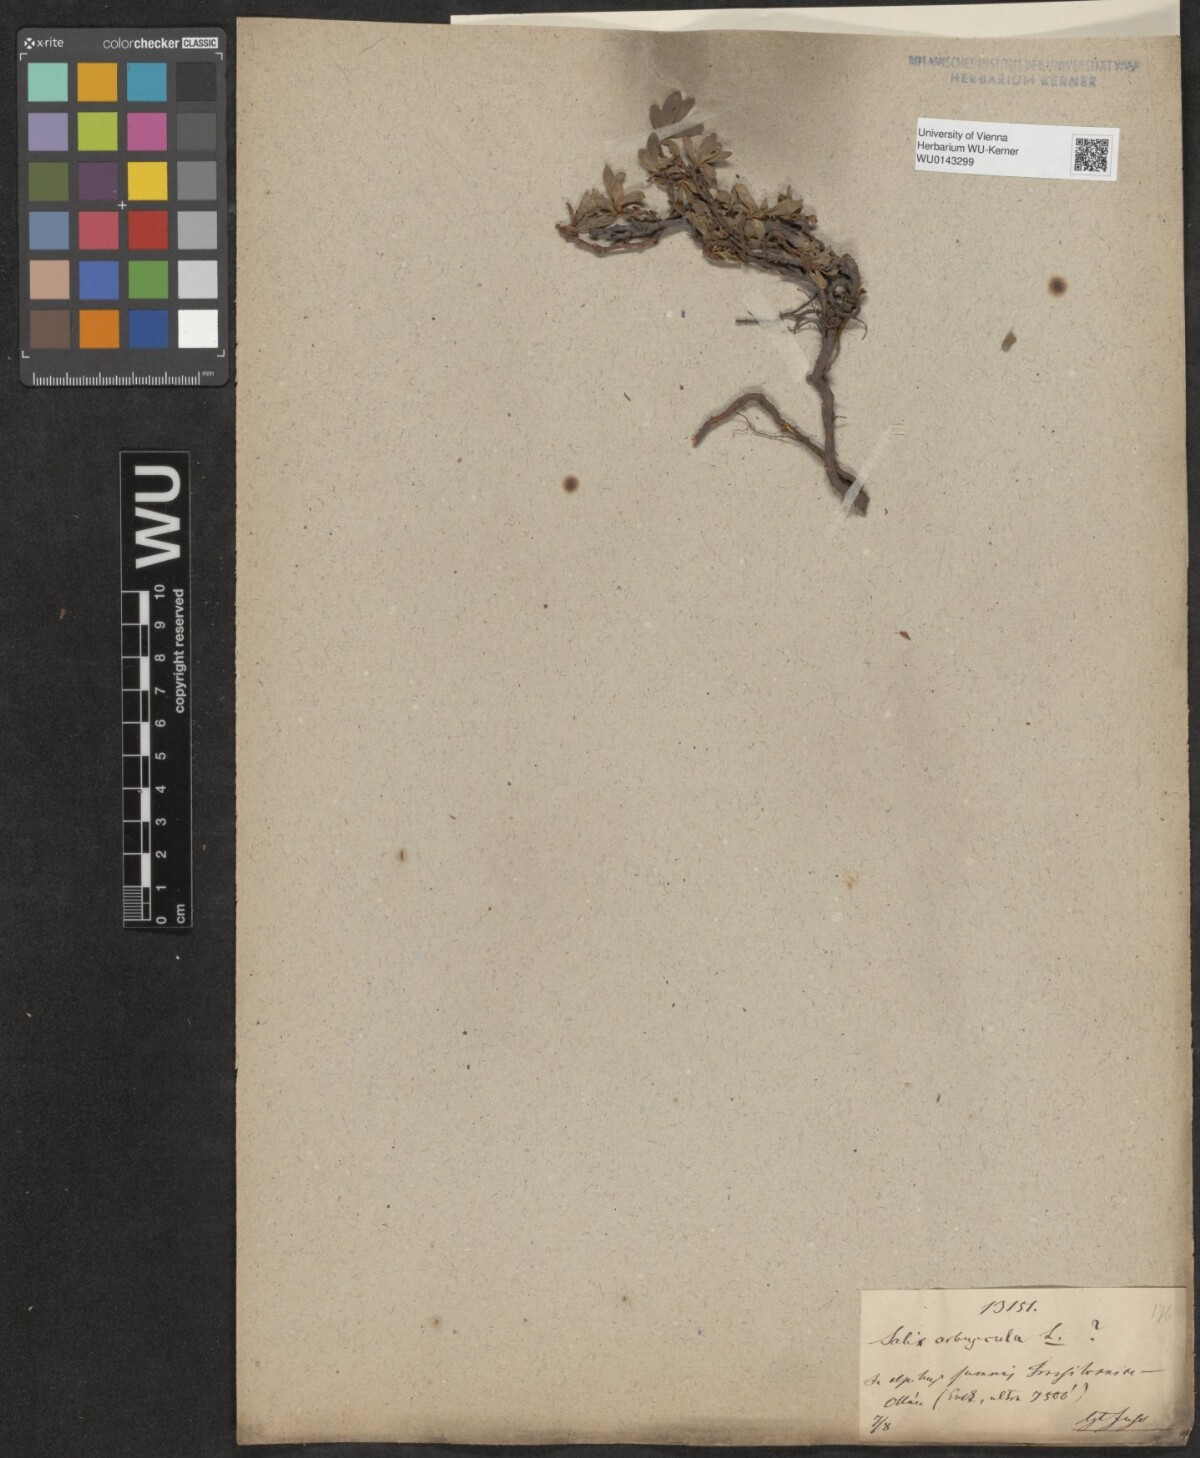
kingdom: Plantae
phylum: Tracheophyta
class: Magnoliopsida
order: Malpighiales
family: Salicaceae
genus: Salix
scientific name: Salix retusa
